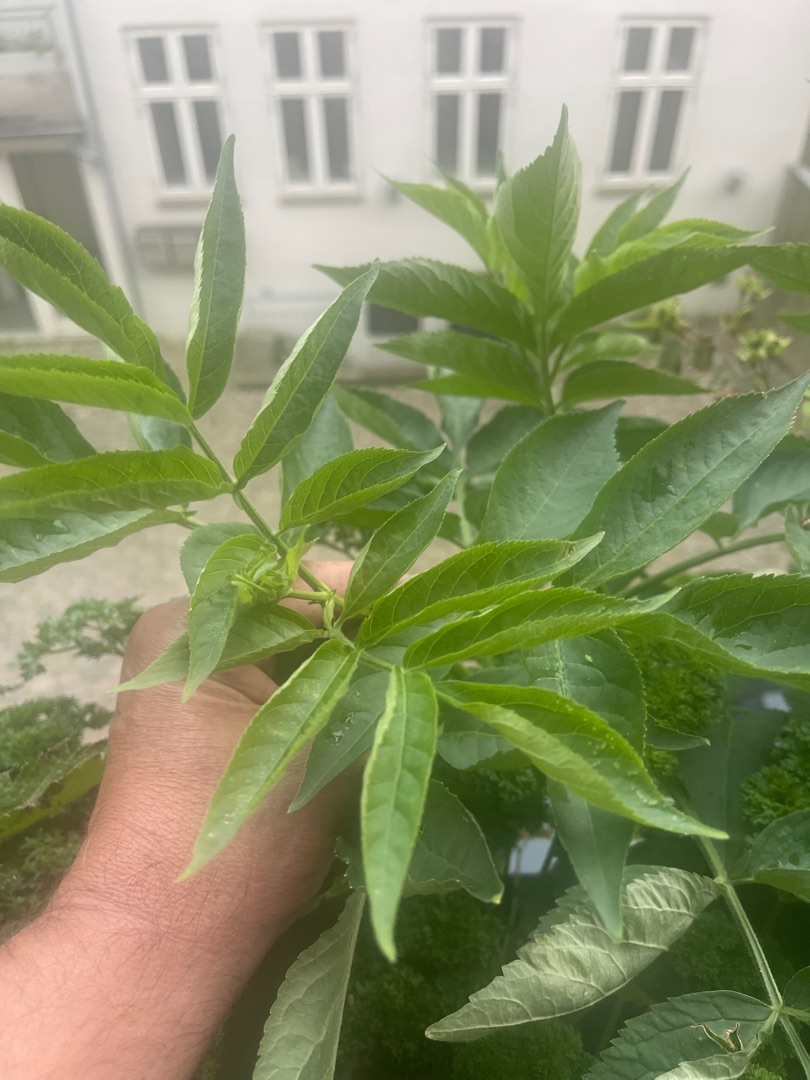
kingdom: Plantae
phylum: Tracheophyta
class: Magnoliopsida
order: Dipsacales
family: Viburnaceae
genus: Sambucus
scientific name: Sambucus nigra
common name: Almindelig hyld
